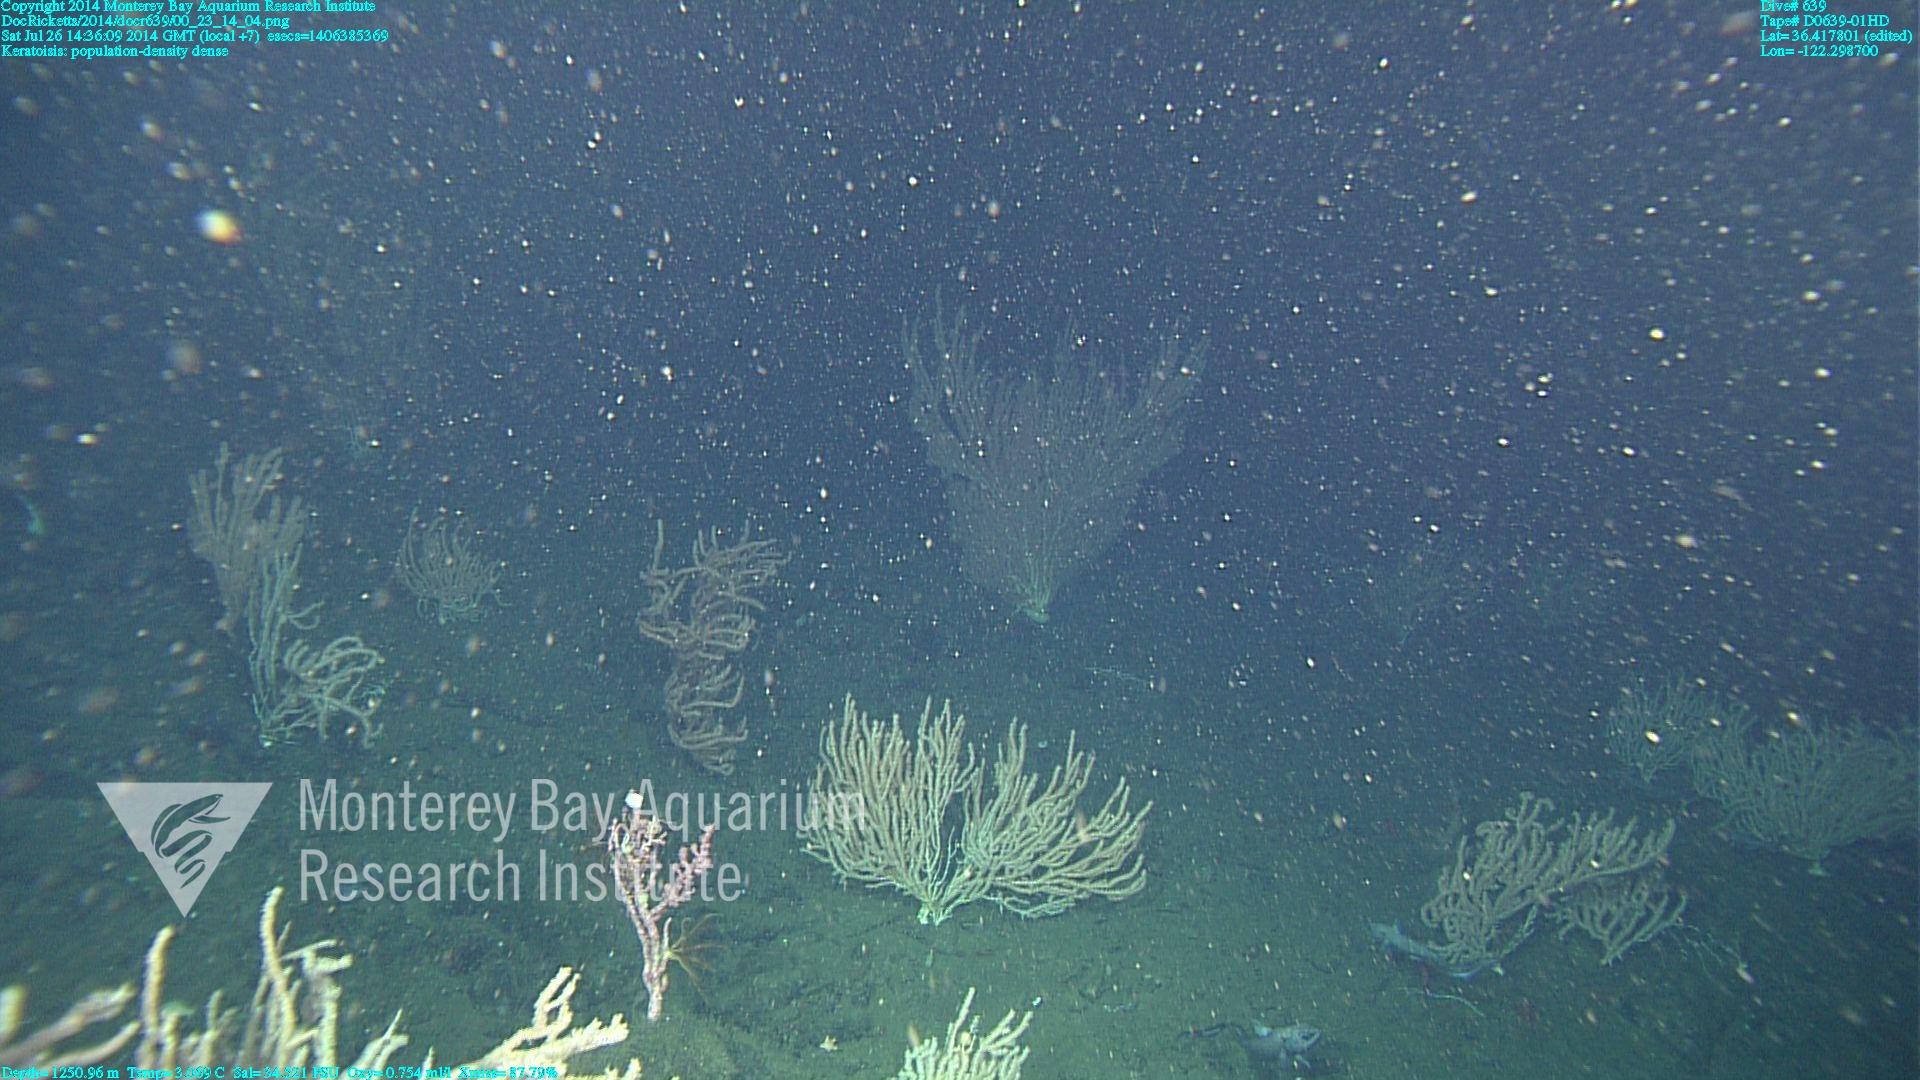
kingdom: Animalia
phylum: Cnidaria
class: Anthozoa
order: Scleralcyonacea
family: Keratoisididae
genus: Keratoisis
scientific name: Keratoisis
